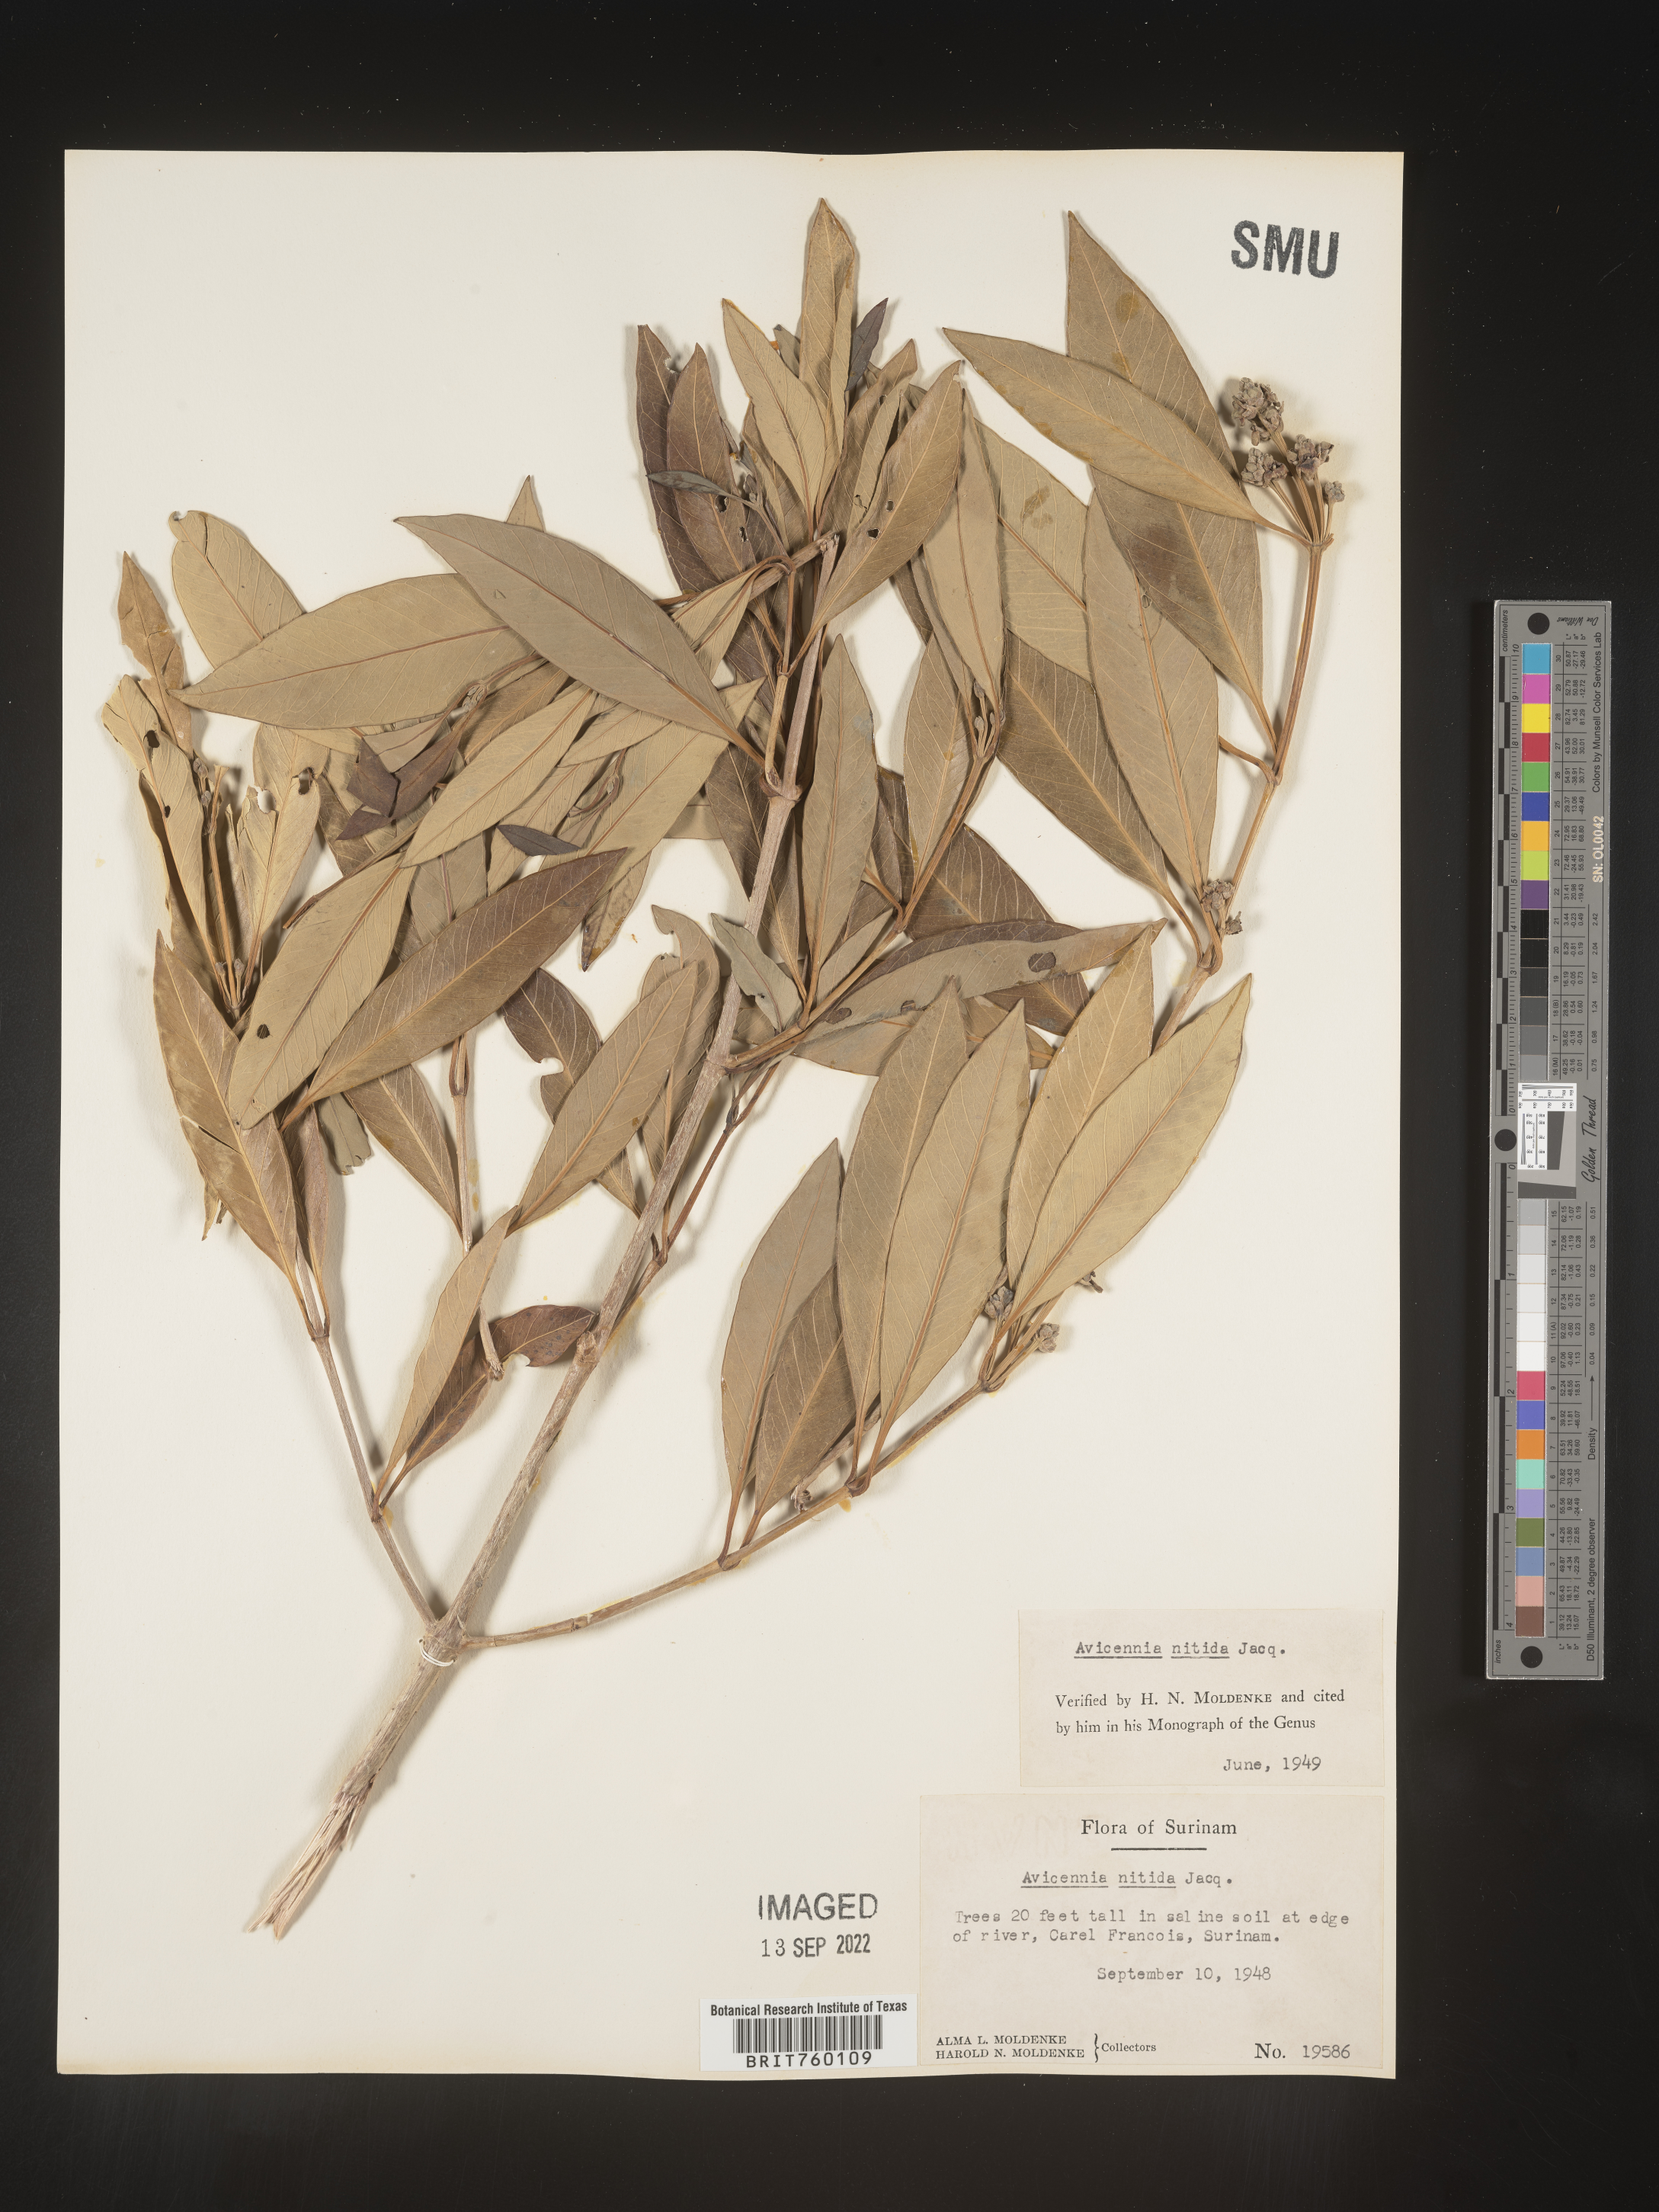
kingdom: Plantae
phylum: Tracheophyta
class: Magnoliopsida
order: Lamiales
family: Acanthaceae
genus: Avicennia
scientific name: Avicennia
